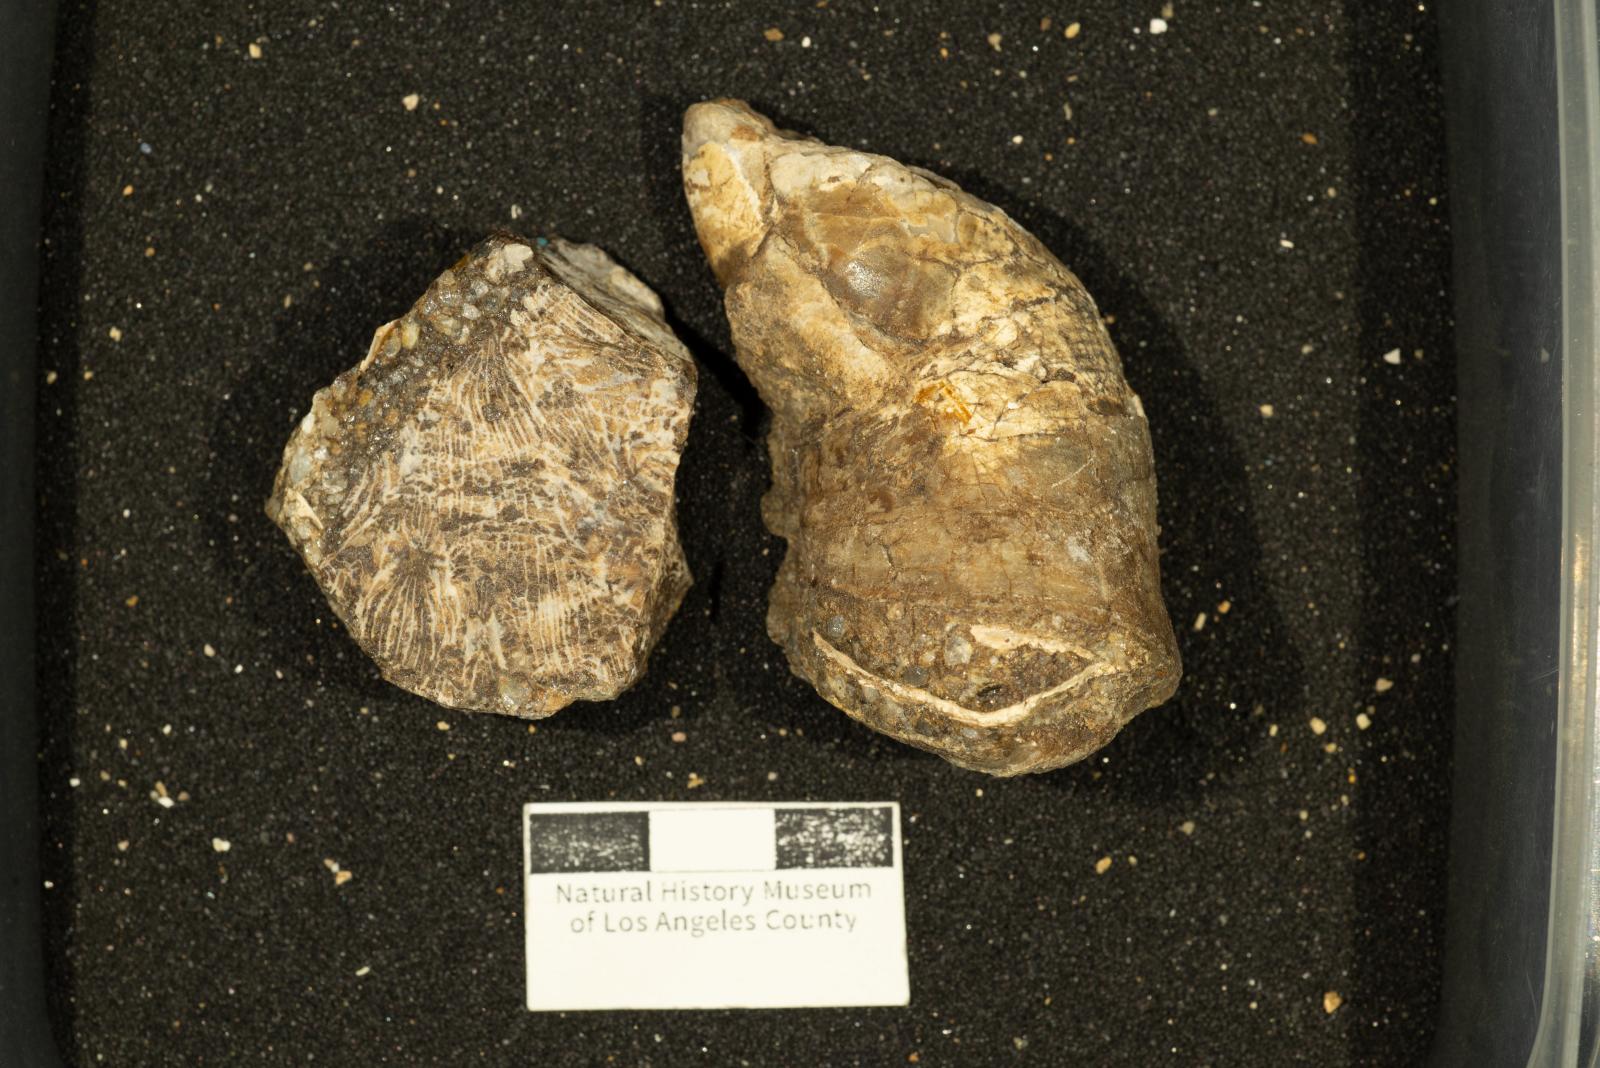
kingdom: Animalia
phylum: Mollusca
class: Bivalvia
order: Hippuritida
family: Plagioptychidae
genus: Coralliochama
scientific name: Coralliochama
